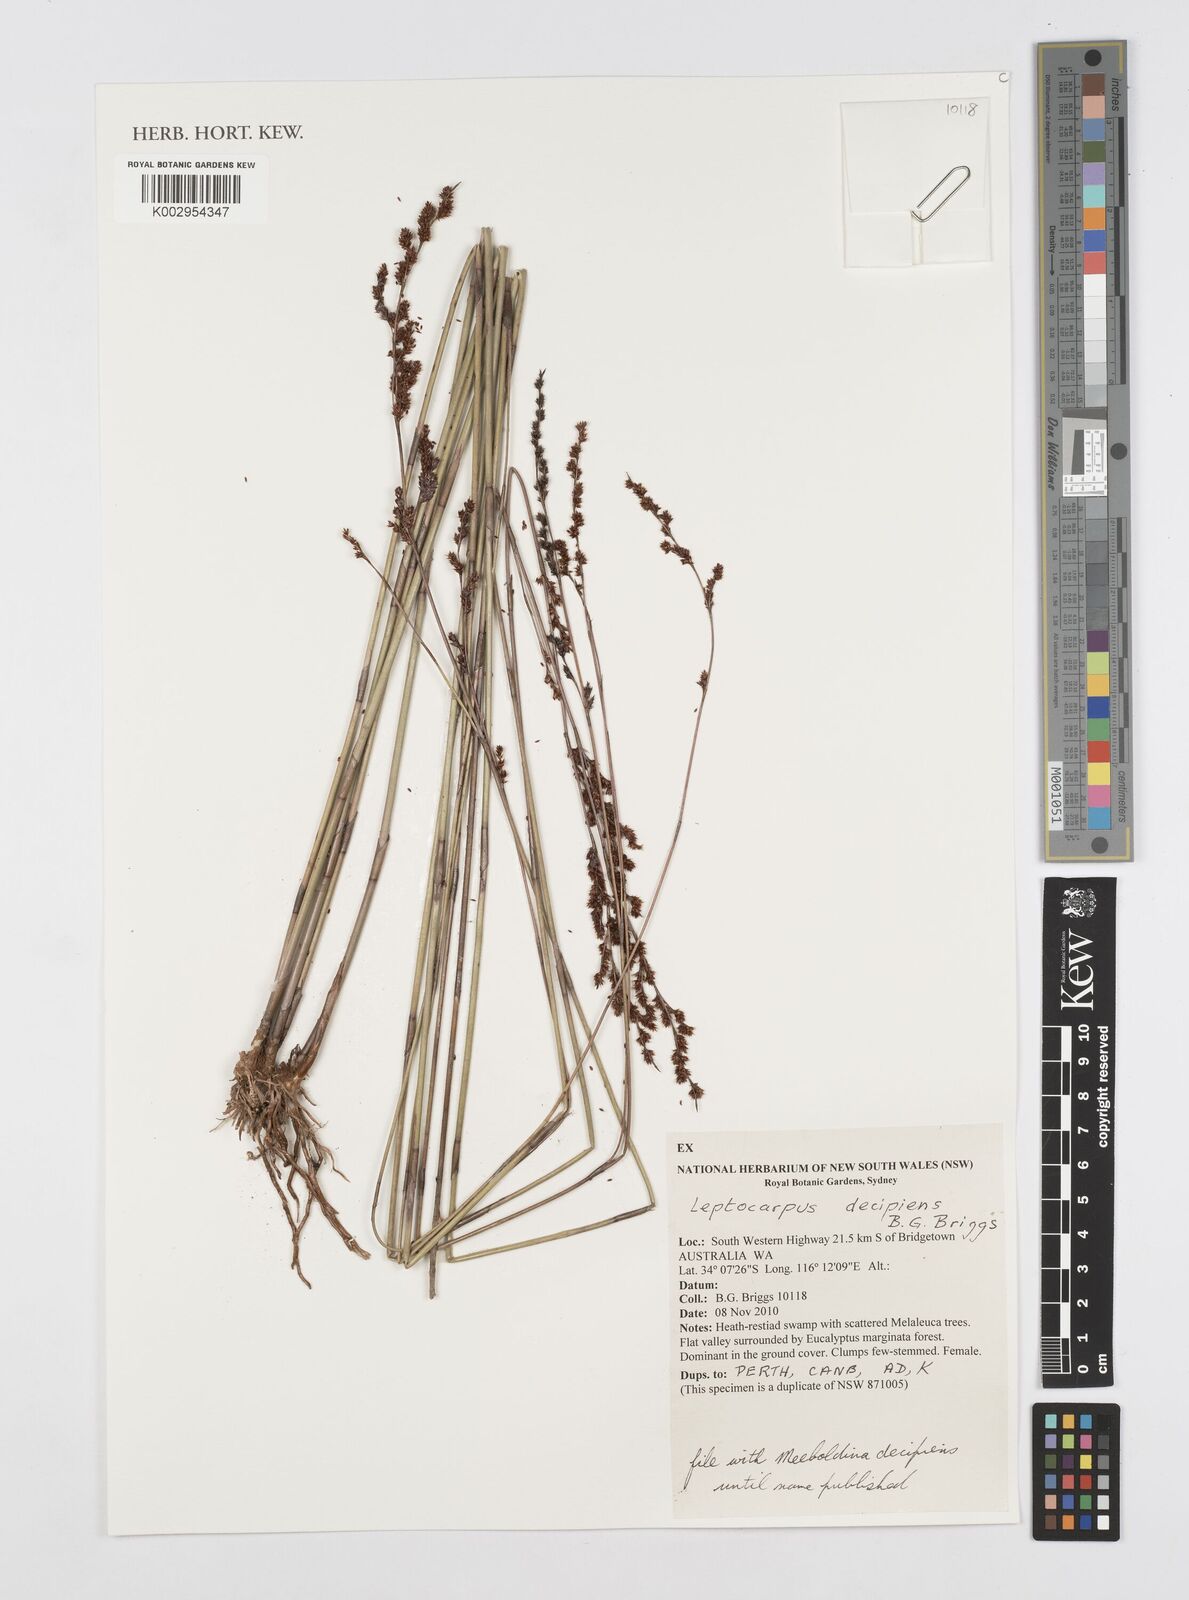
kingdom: Plantae
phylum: Tracheophyta
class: Liliopsida
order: Poales
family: Restionaceae
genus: Leptocarpus
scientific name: Leptocarpus decipiens
